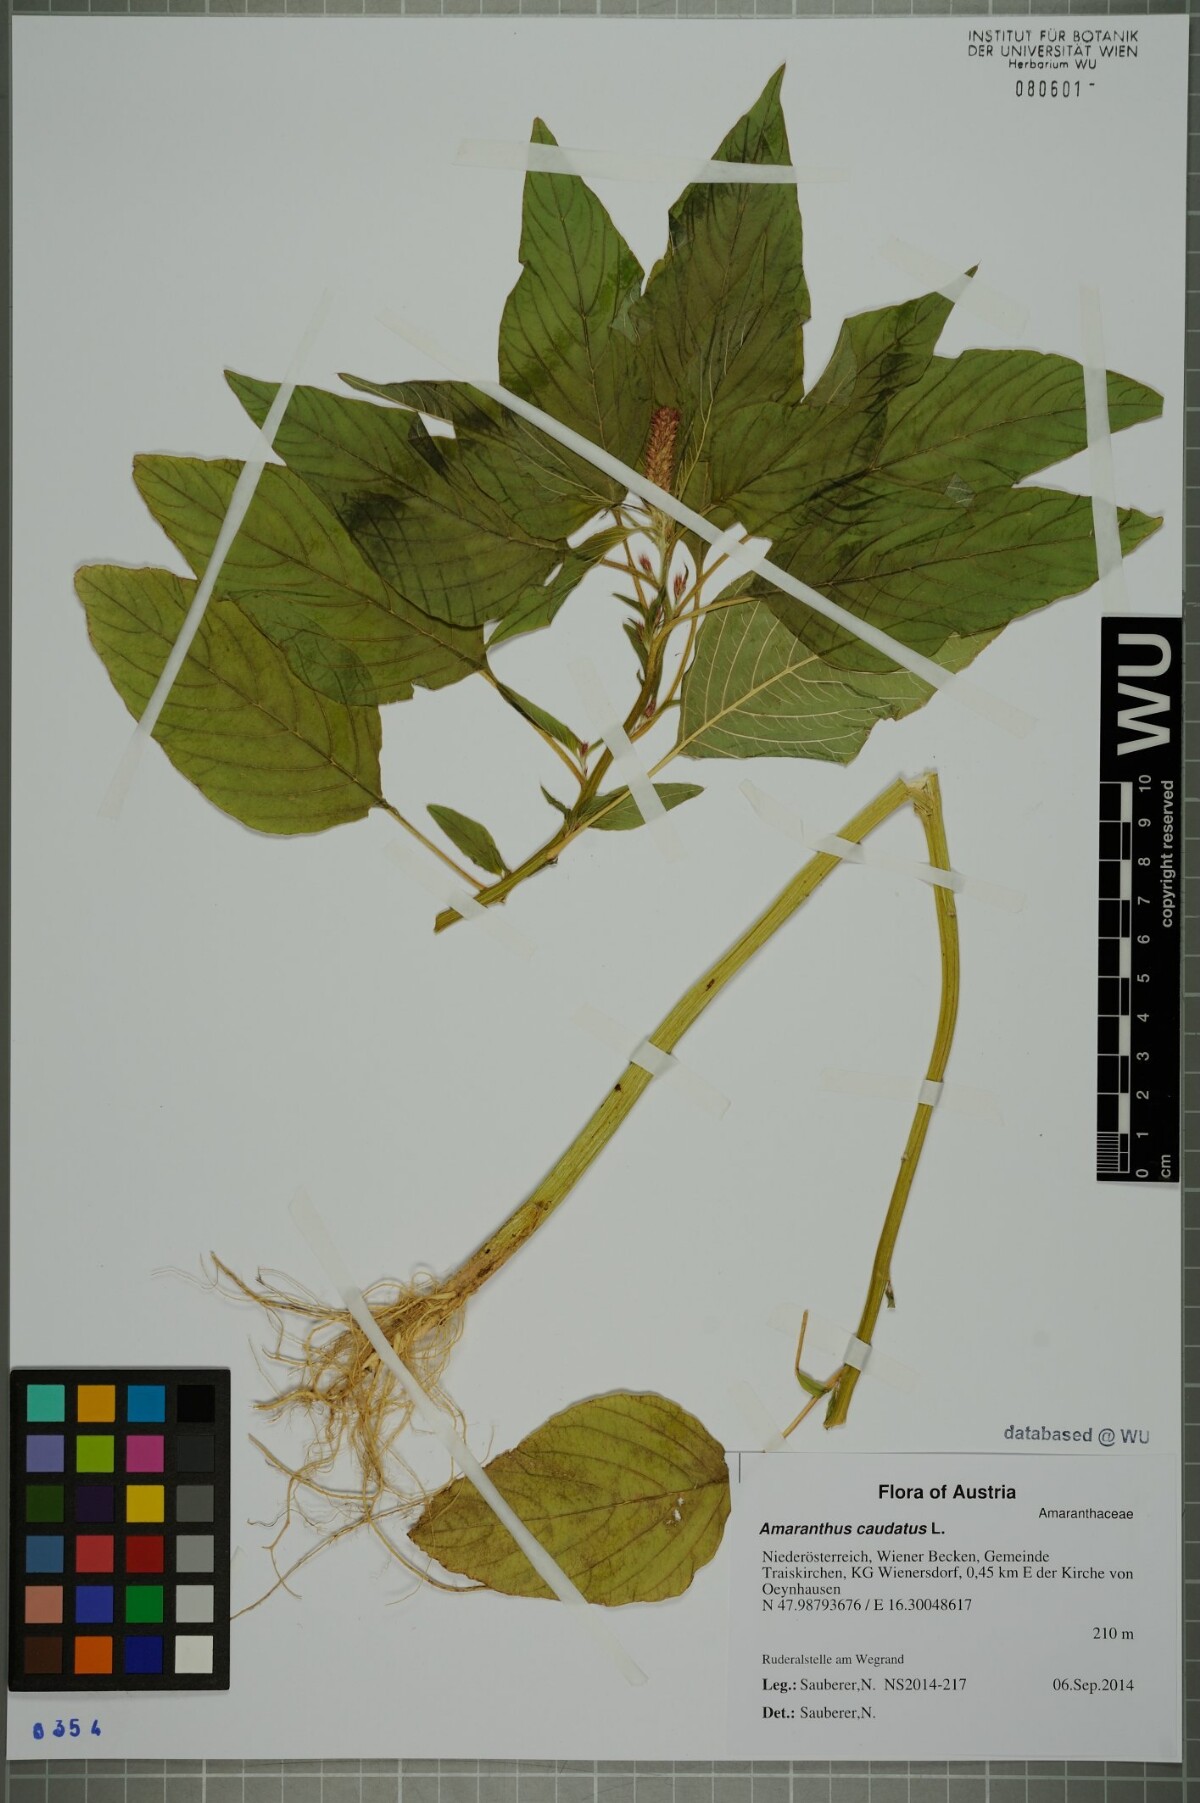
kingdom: Plantae
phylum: Tracheophyta
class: Magnoliopsida
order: Caryophyllales
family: Amaranthaceae
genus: Amaranthus
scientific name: Amaranthus caudatus
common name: Love-lies-bleeding
